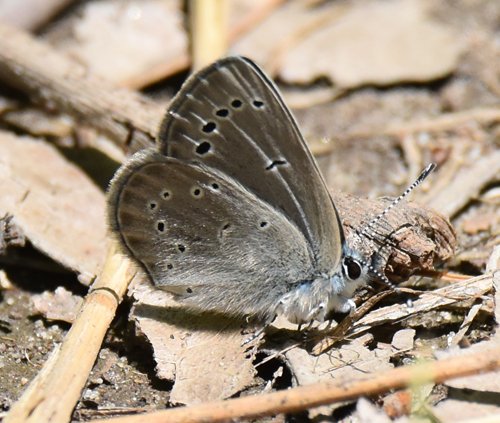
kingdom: Animalia
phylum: Arthropoda
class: Insecta
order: Lepidoptera
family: Lycaenidae
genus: Glaucopsyche
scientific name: Glaucopsyche lygdamus
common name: Silvery Blue
